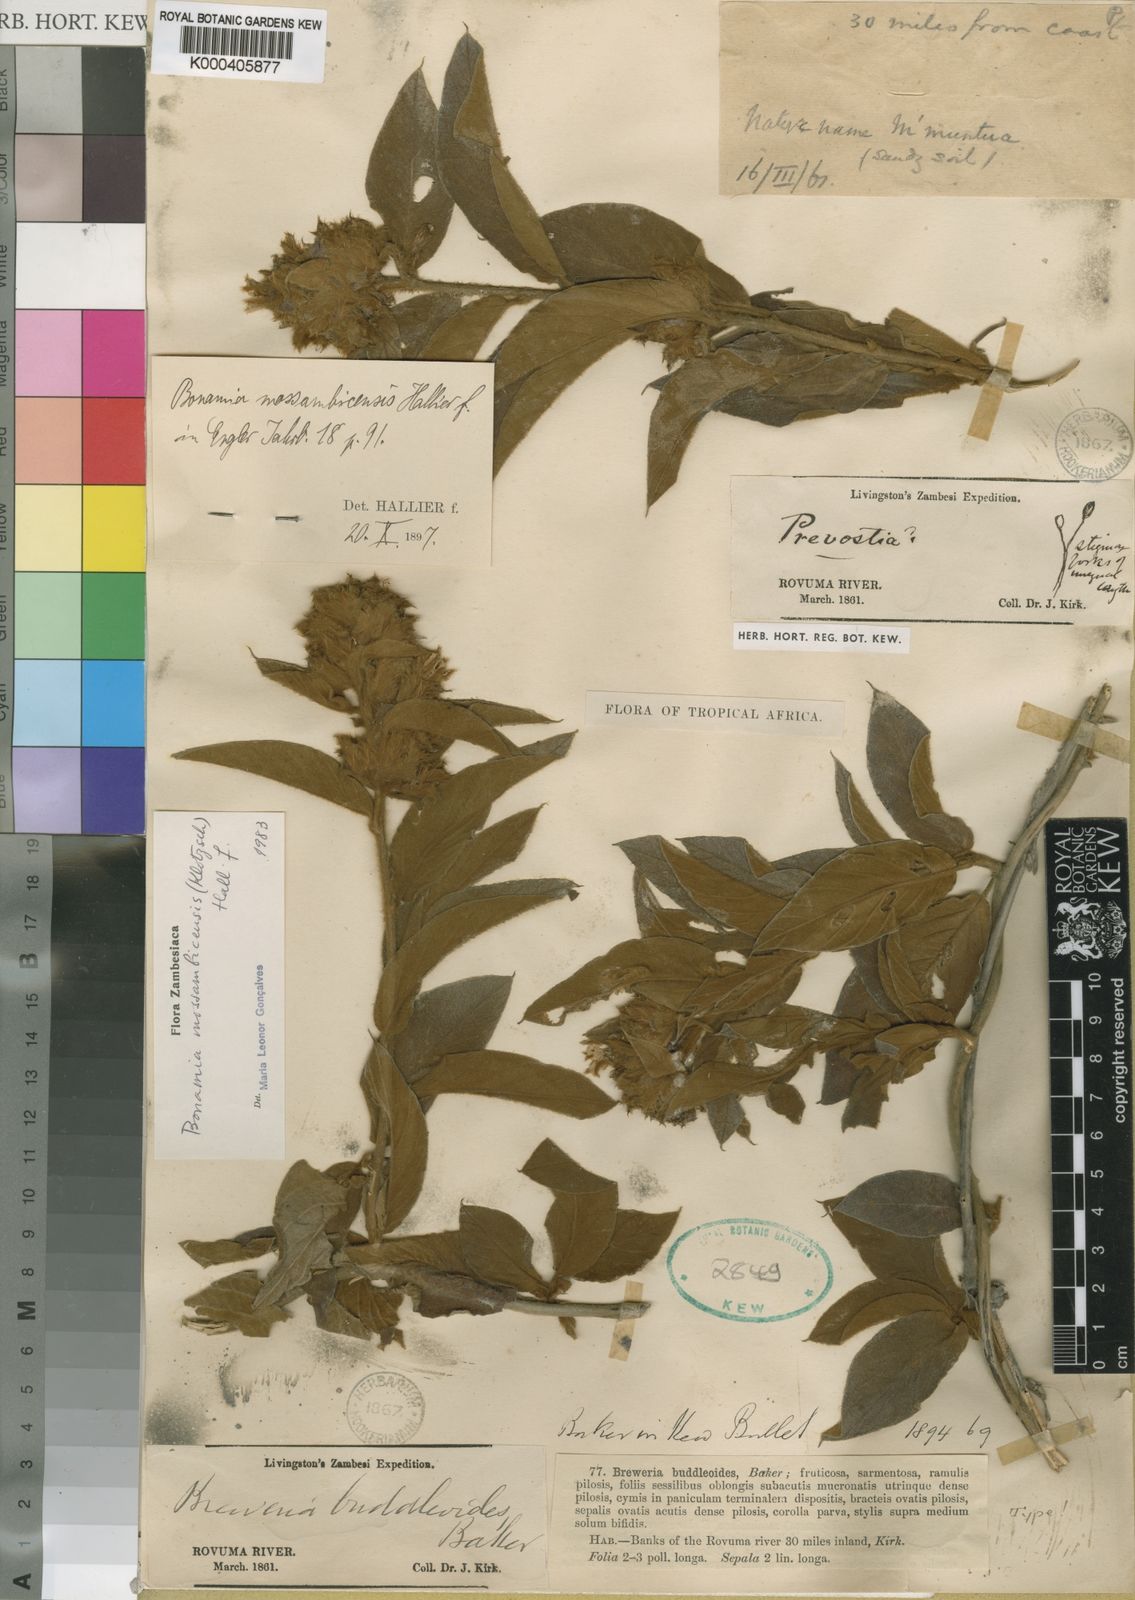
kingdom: Plantae
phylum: Tracheophyta
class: Magnoliopsida
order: Solanales
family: Convolvulaceae
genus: Bonamia
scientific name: Bonamia mossambicensis
